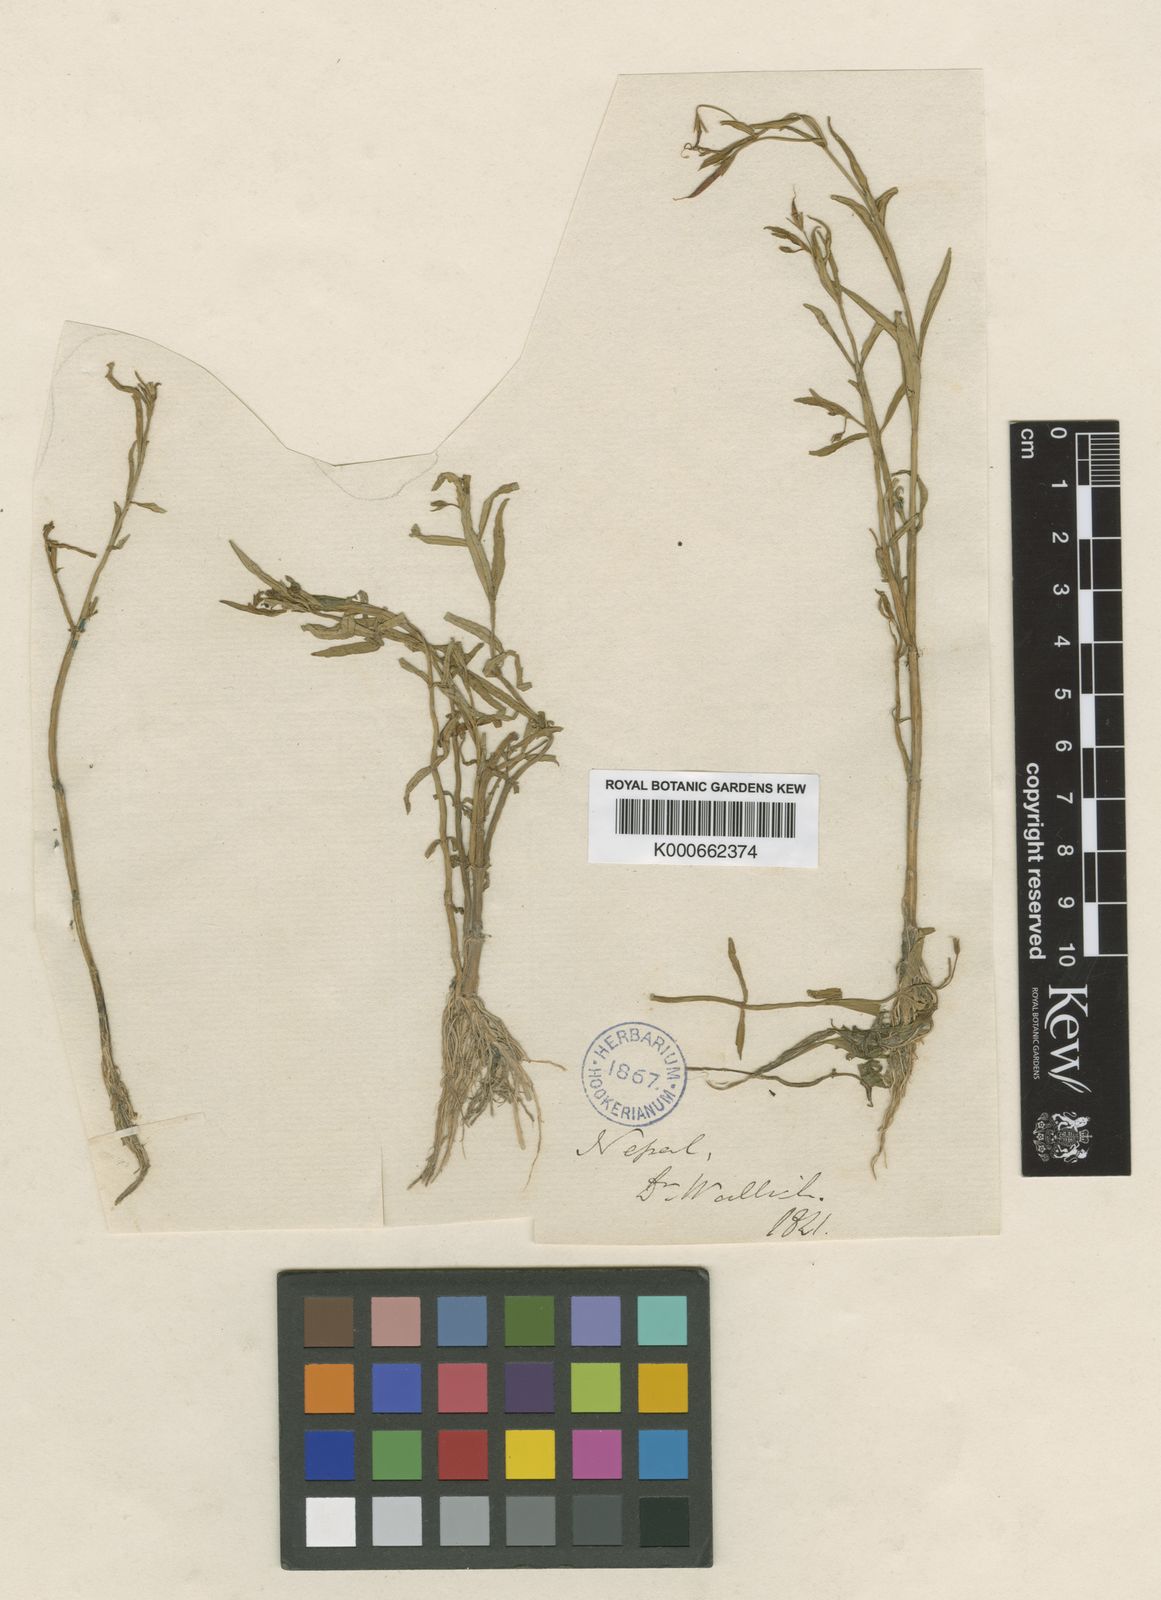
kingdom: Plantae
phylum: Tracheophyta
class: Magnoliopsida
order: Lamiales
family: Linderniaceae
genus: Vandellia
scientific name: Vandellia micrantha
